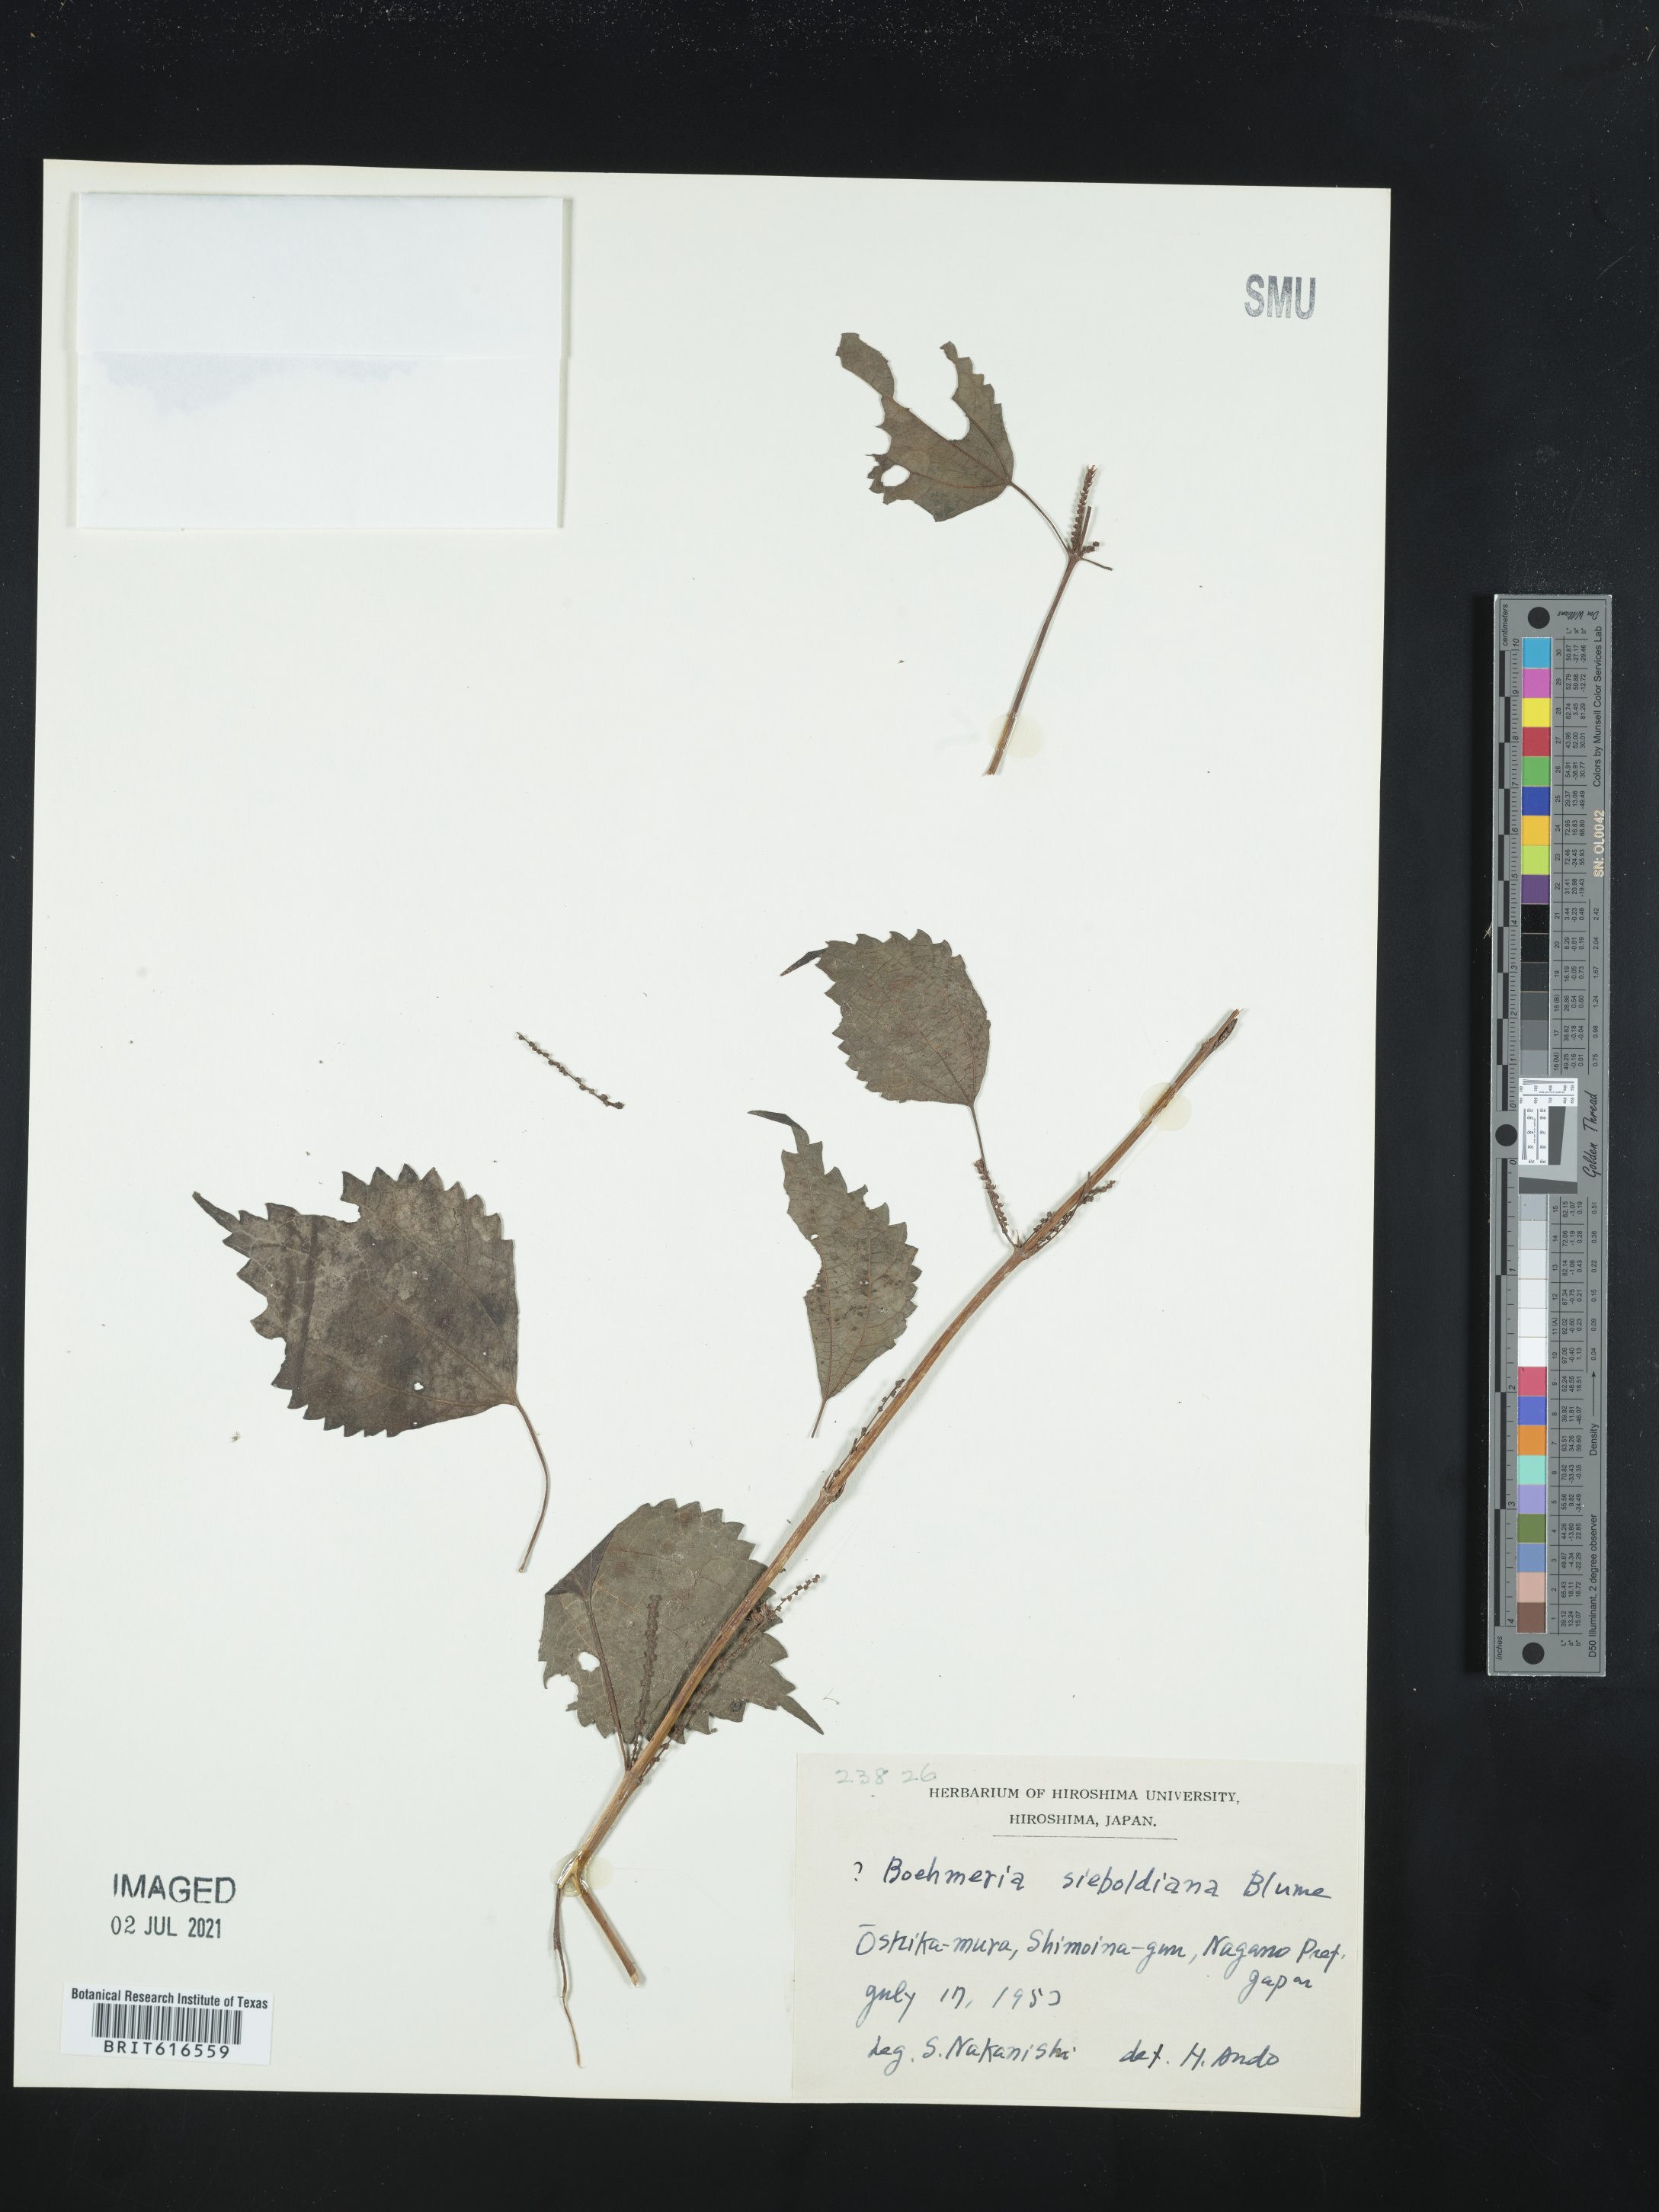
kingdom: Plantae
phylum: Tracheophyta
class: Magnoliopsida
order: Rosales
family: Urticaceae
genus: Boehmeria
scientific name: Boehmeria sieboldiana
